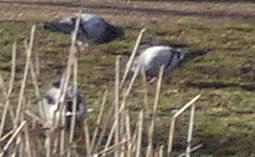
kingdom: Animalia
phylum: Chordata
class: Aves
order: Columbiformes
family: Columbidae
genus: Columba
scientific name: Columba livia
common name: Tamdue
